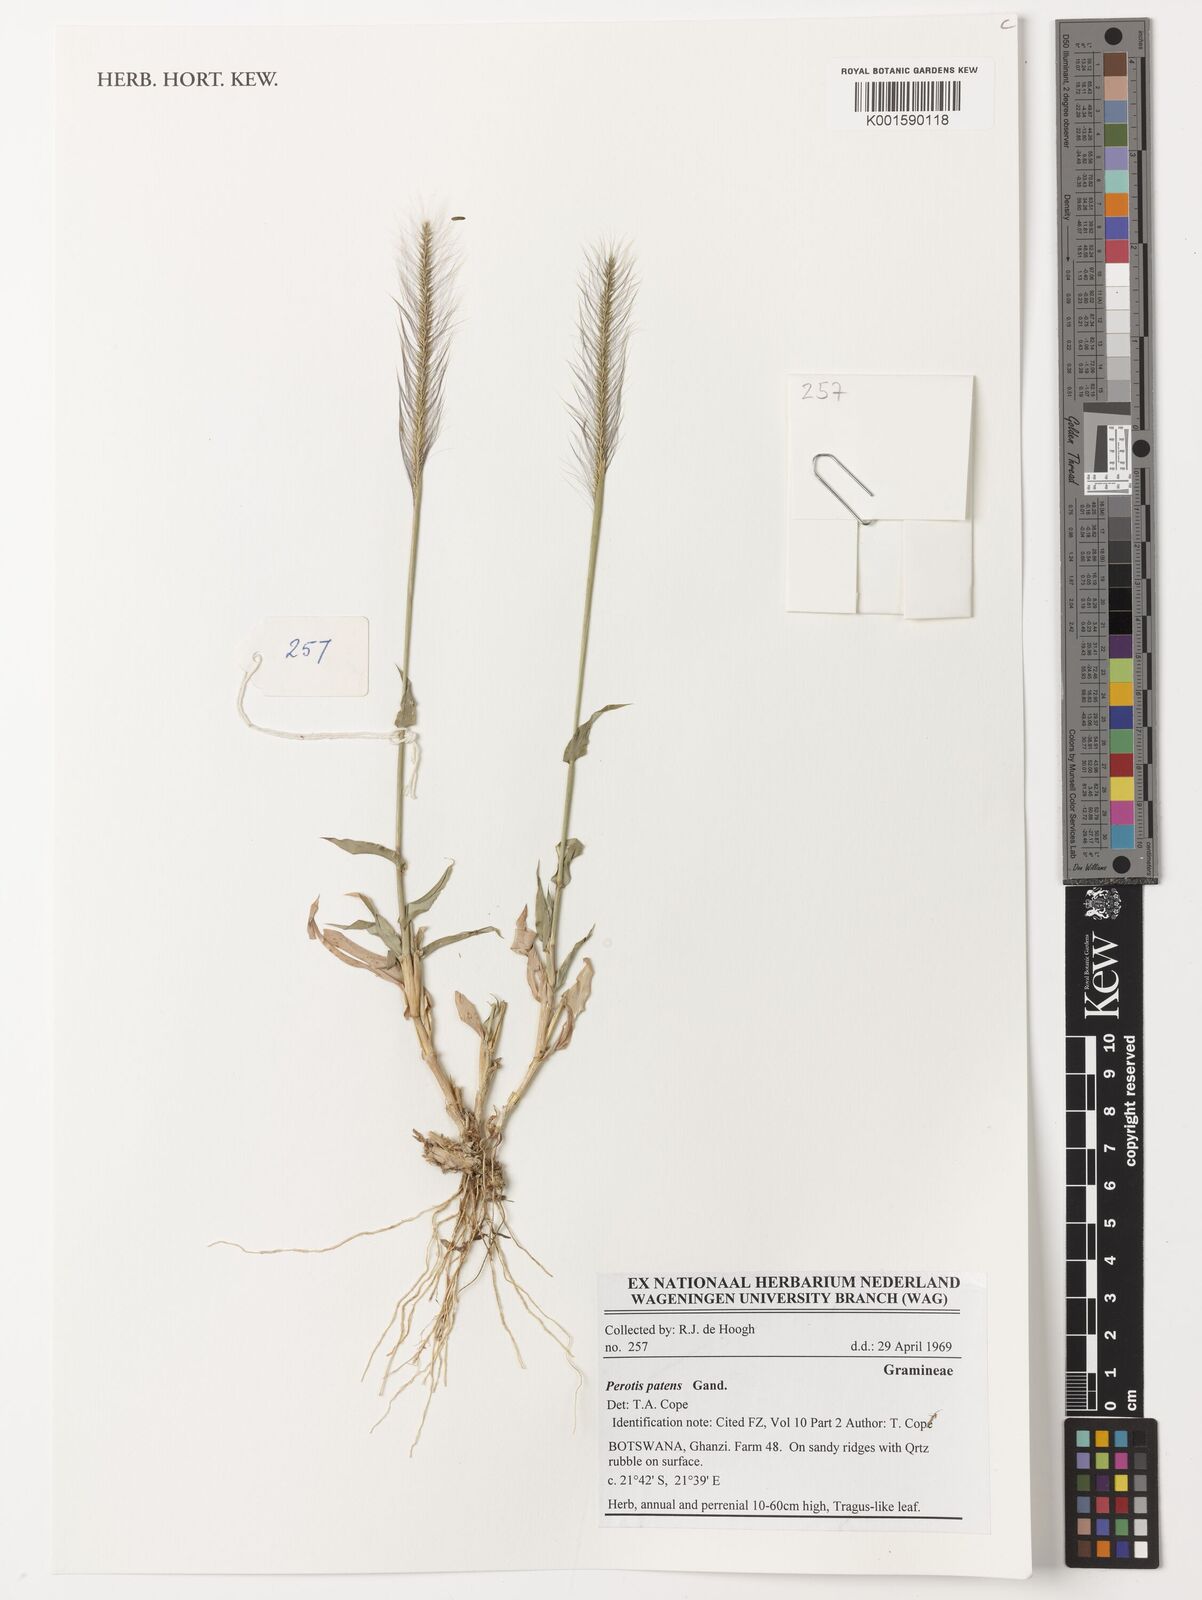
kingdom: Plantae
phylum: Tracheophyta
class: Liliopsida
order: Poales
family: Poaceae
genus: Perotis
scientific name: Perotis patens
